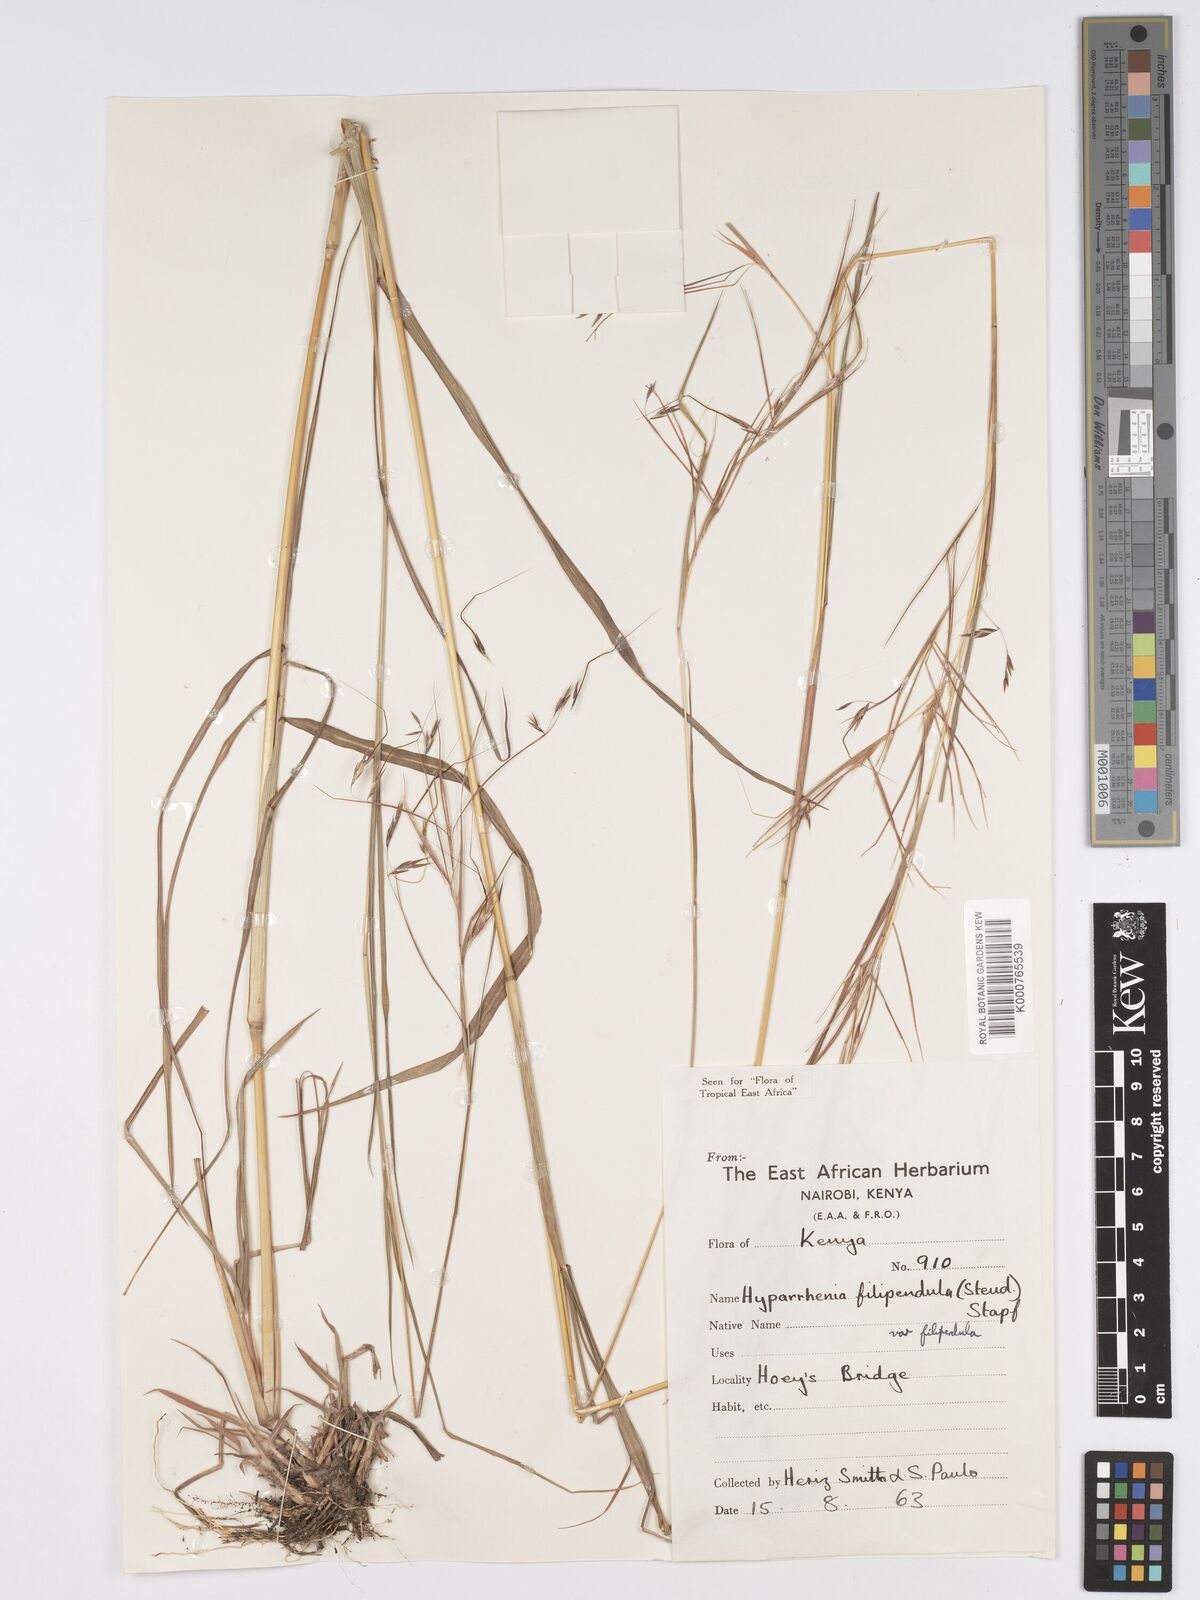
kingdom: Plantae
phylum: Tracheophyta
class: Liliopsida
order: Poales
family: Poaceae
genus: Hyparrhenia
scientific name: Hyparrhenia filipendula
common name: Tambookie grass
